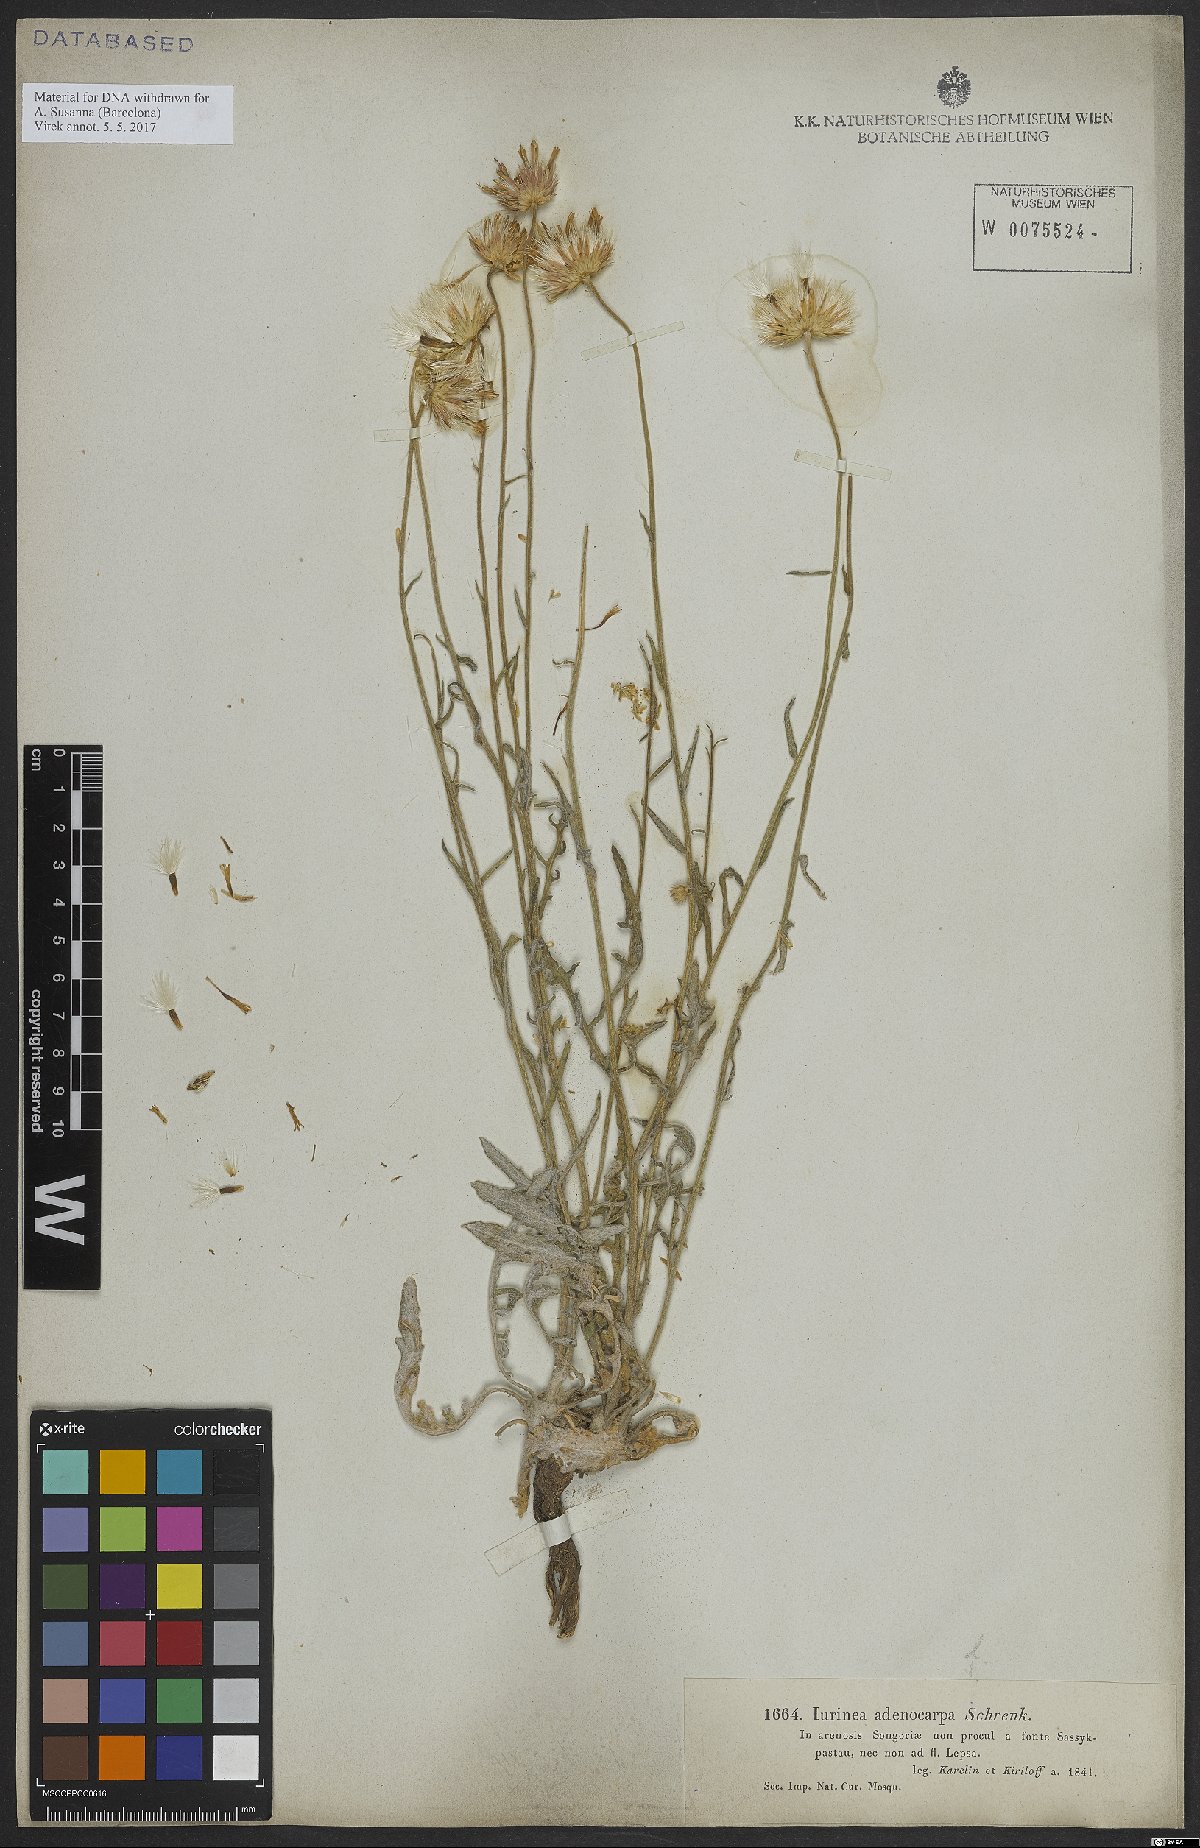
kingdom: Plantae
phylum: Tracheophyta
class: Magnoliopsida
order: Asterales
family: Asteraceae
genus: Jurinea
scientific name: Jurinea adenocarpa
